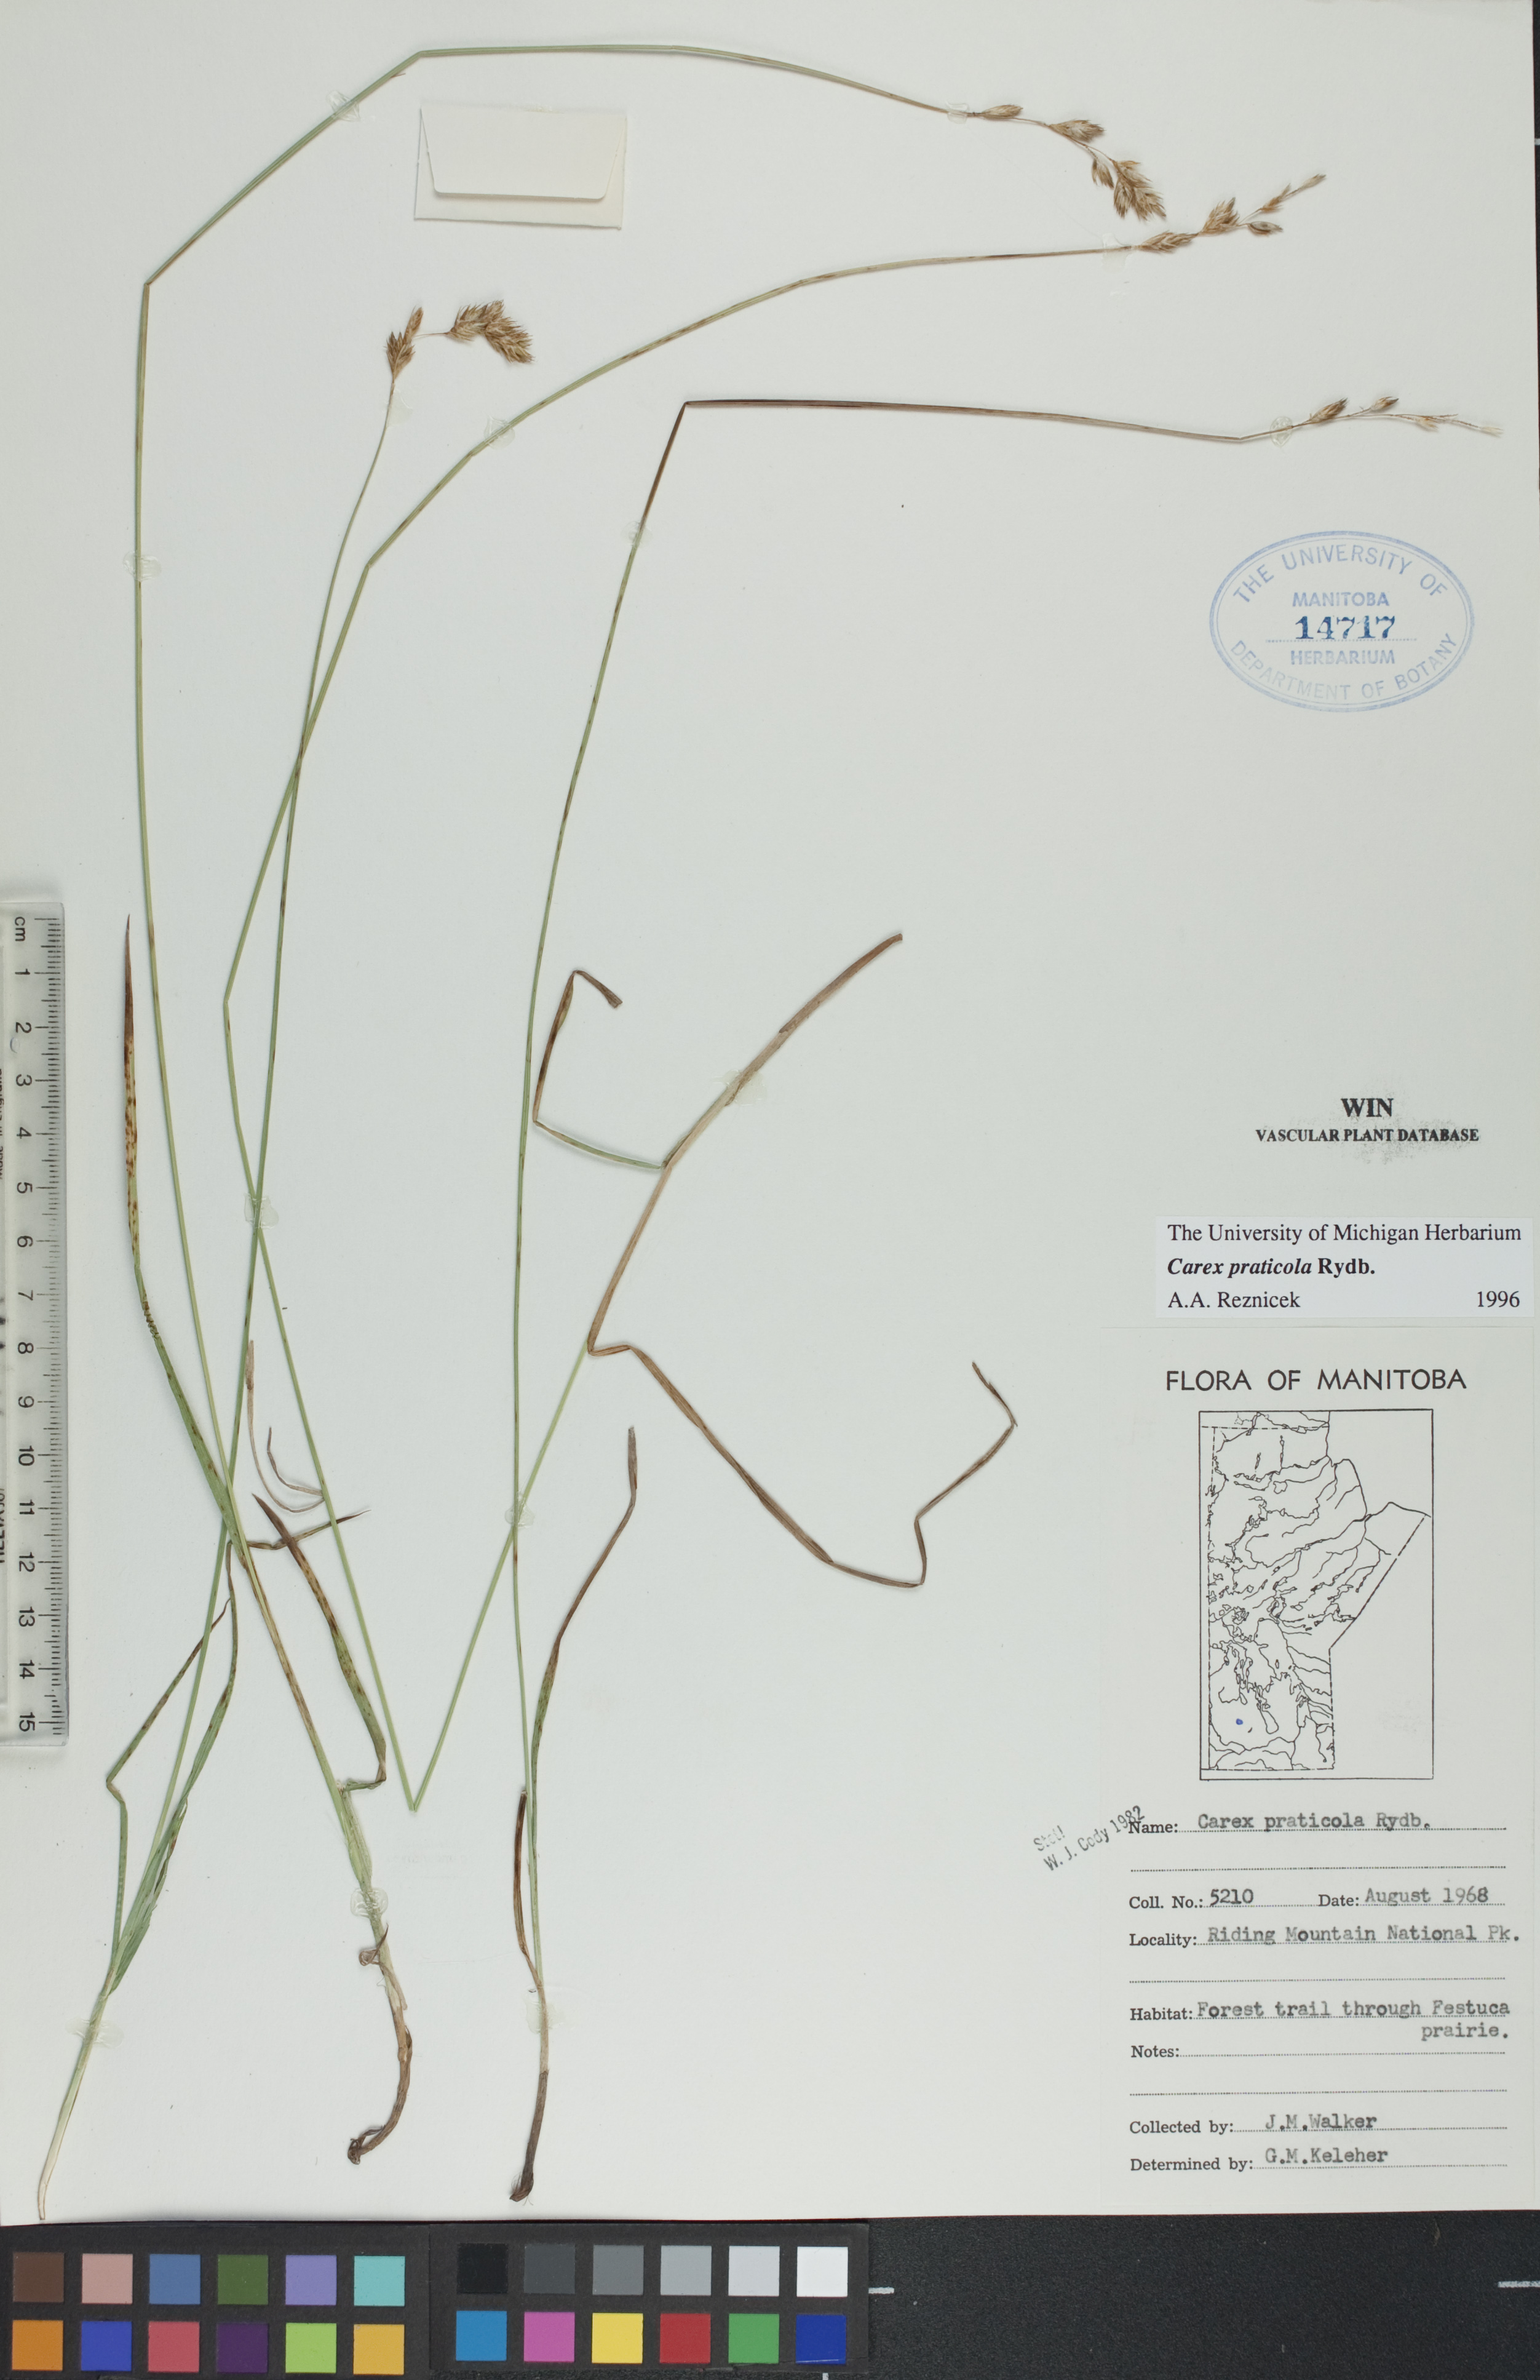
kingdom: Plantae
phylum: Tracheophyta
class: Liliopsida
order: Poales
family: Cyperaceae
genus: Carex
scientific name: Carex praticola
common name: Large-fruited oval sedge
